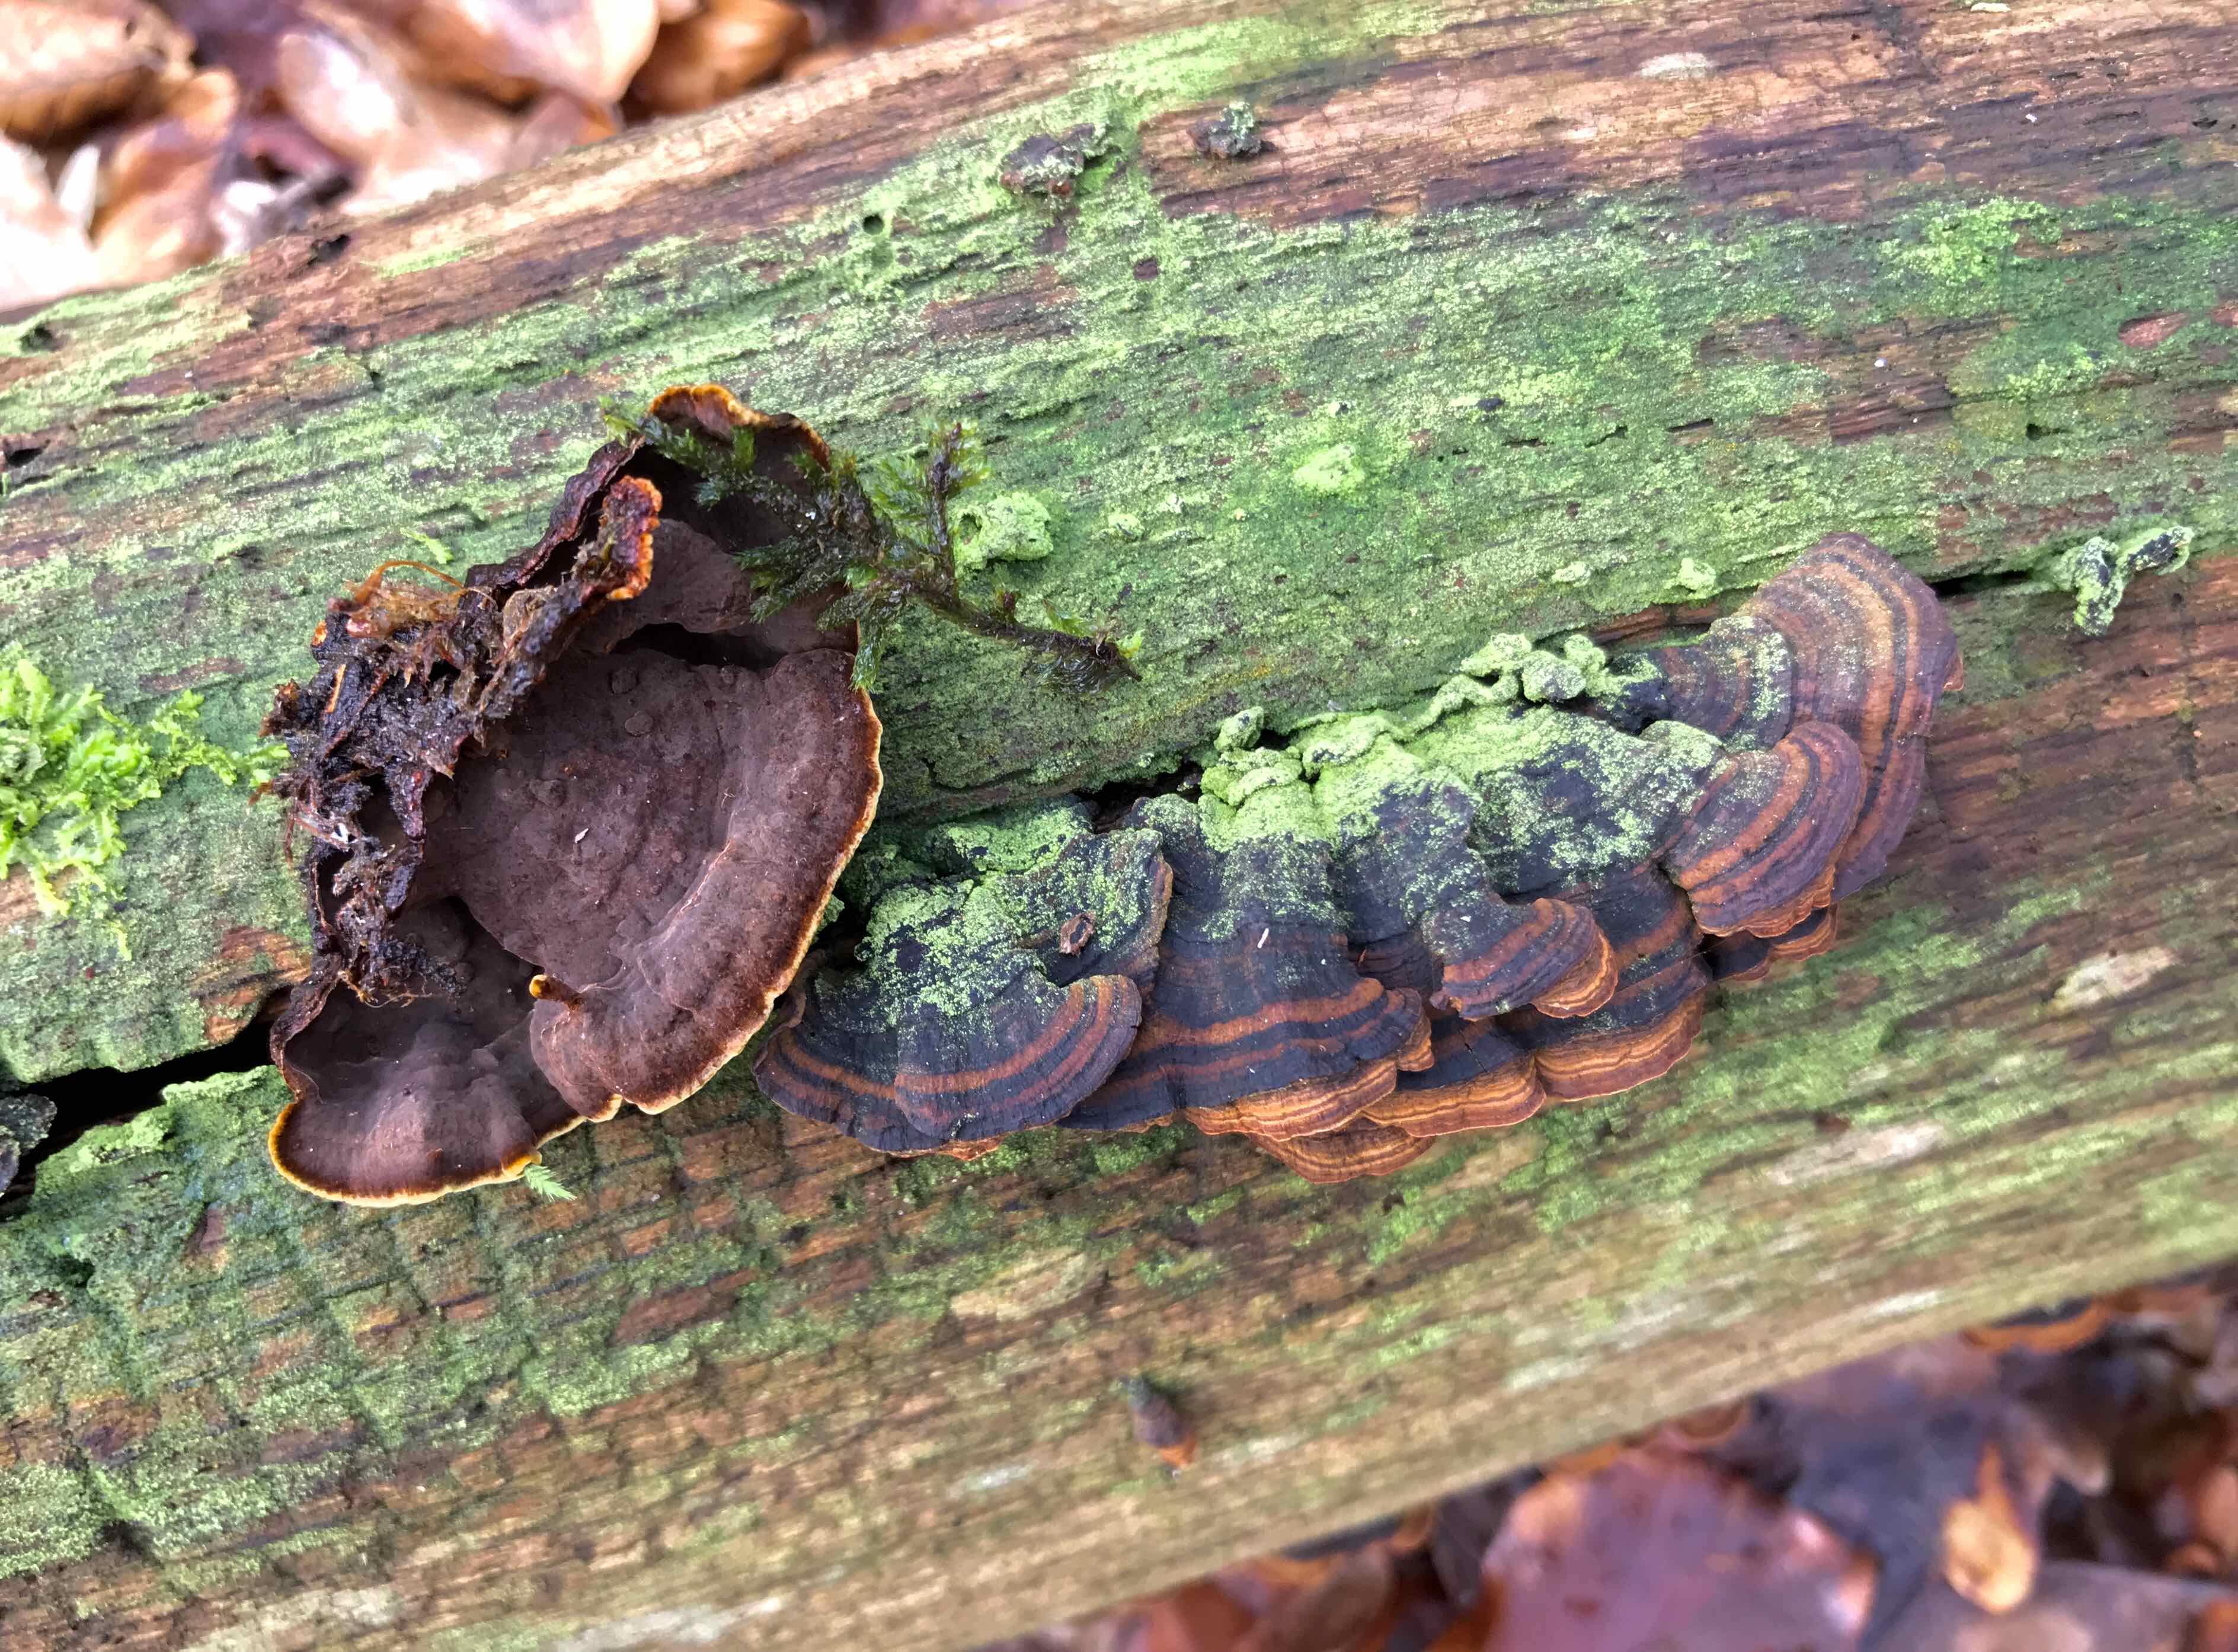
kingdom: Fungi
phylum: Basidiomycota
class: Agaricomycetes
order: Hymenochaetales
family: Hymenochaetaceae
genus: Hymenochaete
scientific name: Hymenochaete rubiginosa
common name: stiv ruslædersvamp
